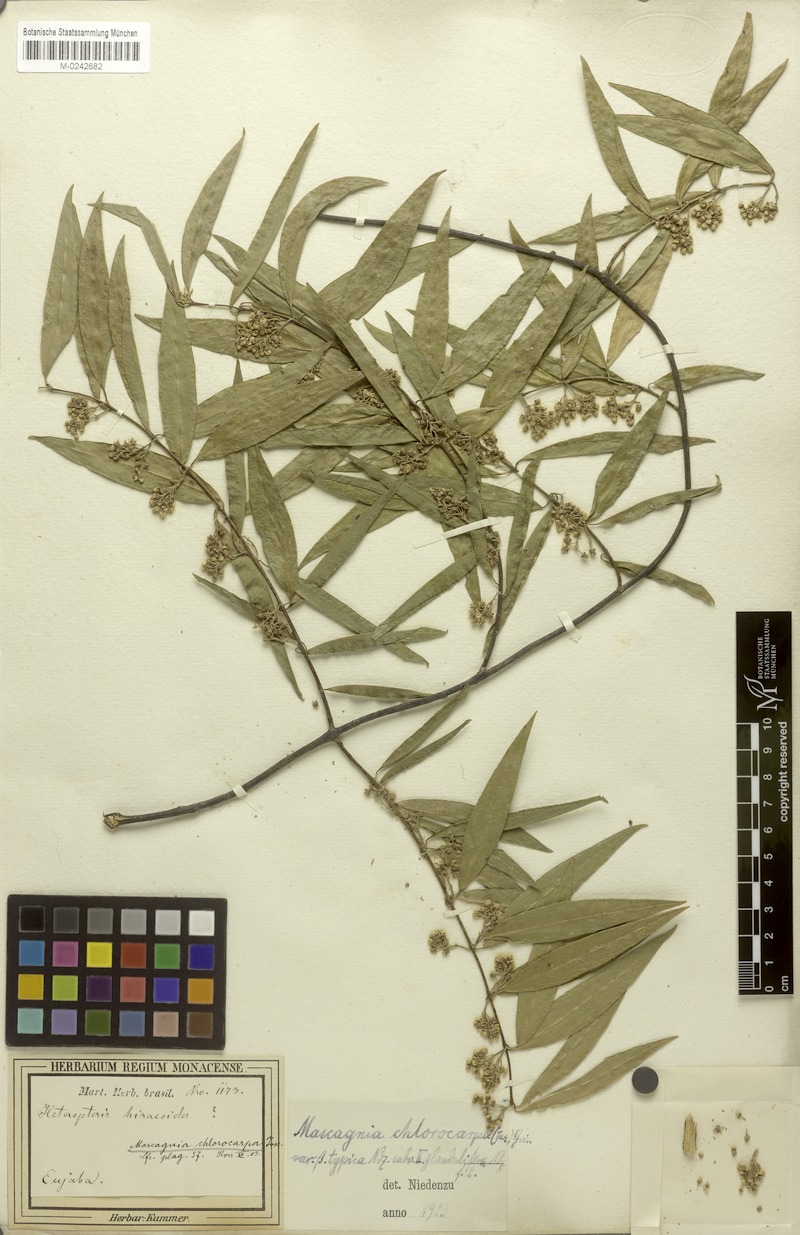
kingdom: Plantae
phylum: Tracheophyta
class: Magnoliopsida
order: Malpighiales
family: Malpighiaceae
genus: Carolus
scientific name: Carolus chlorocarpus
